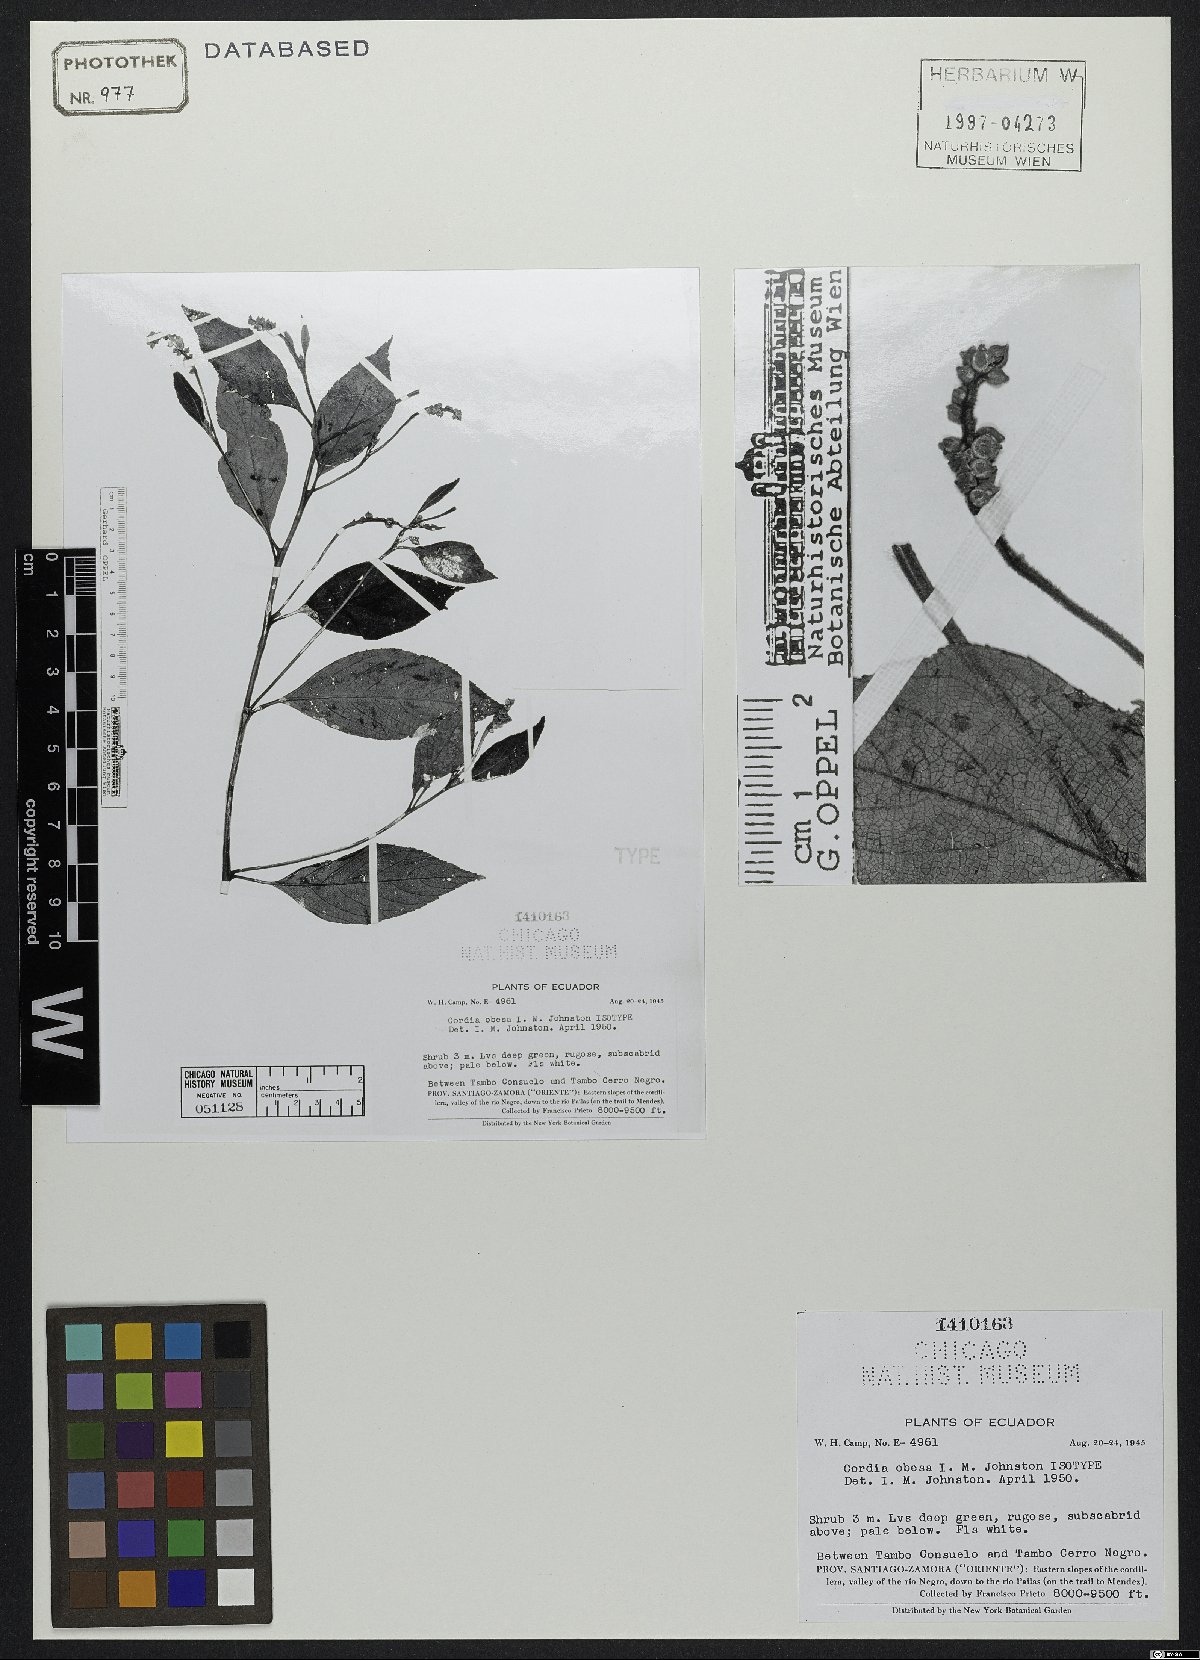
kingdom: Plantae
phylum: Tracheophyta
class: Magnoliopsida
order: Boraginales
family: Cordiaceae
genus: Cordia
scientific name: Cordia
